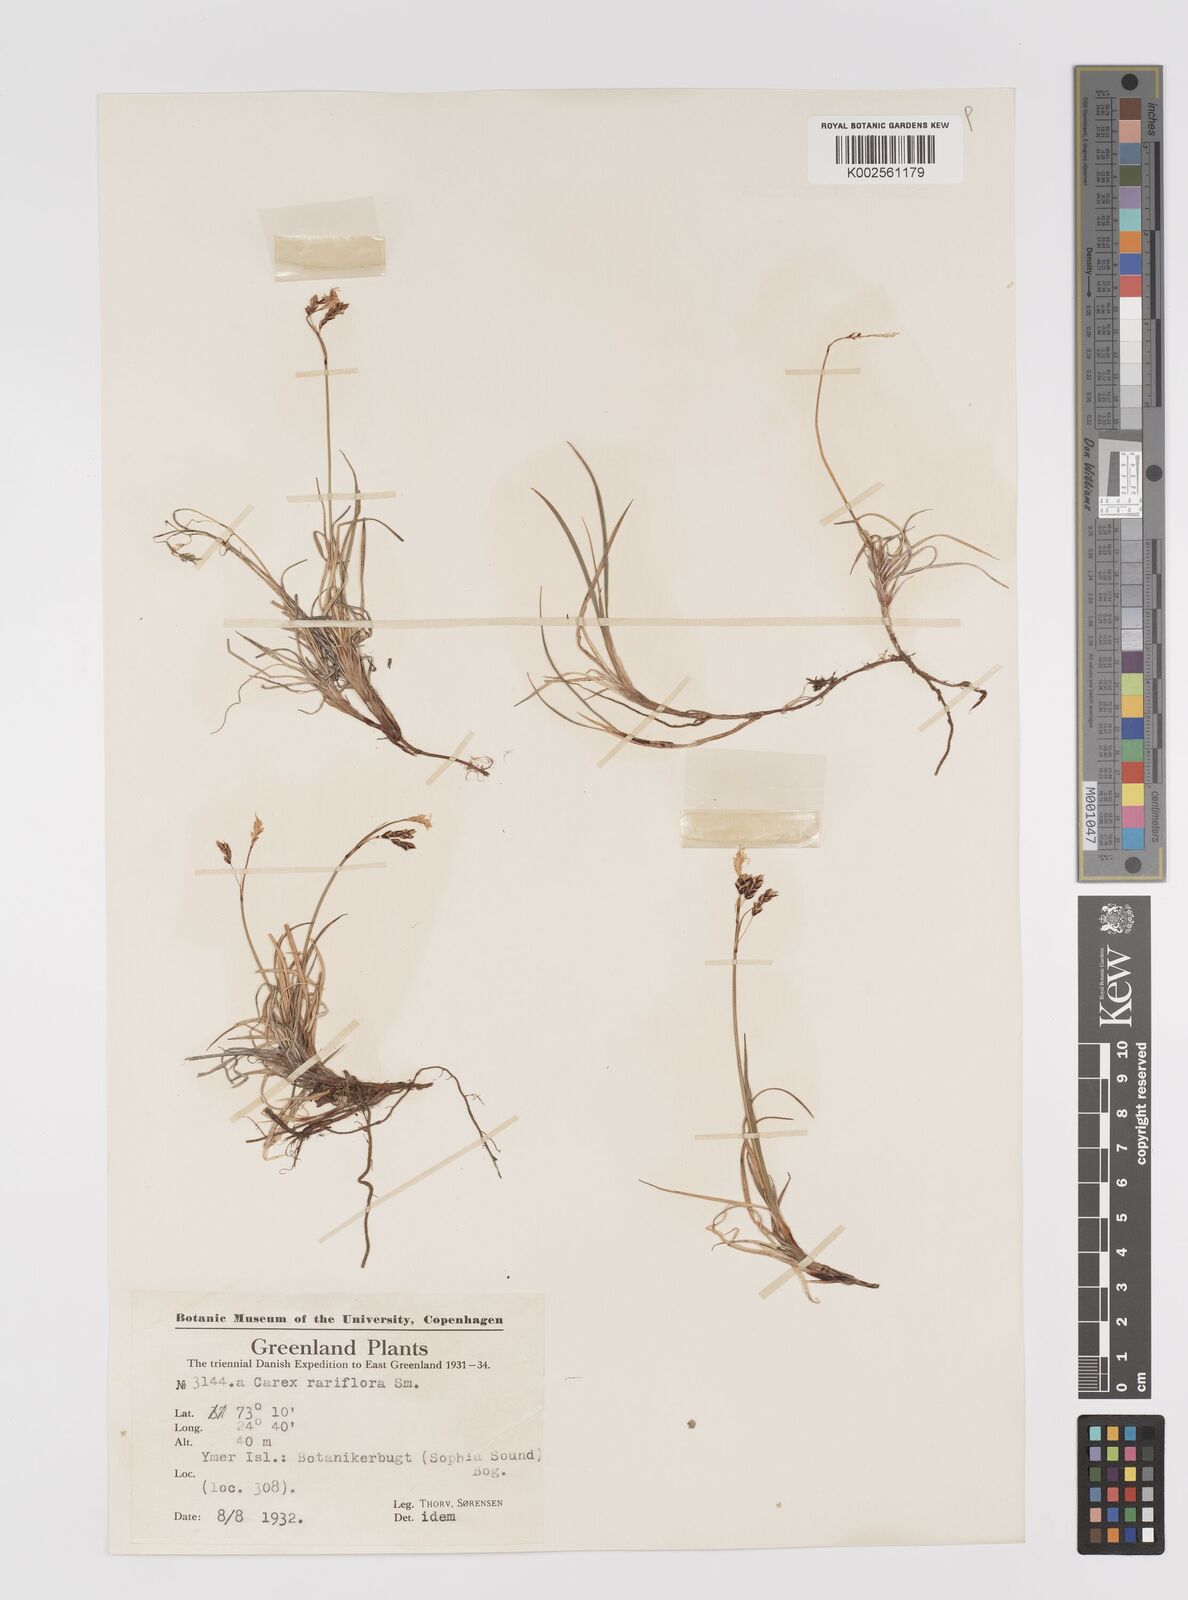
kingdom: Plantae
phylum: Tracheophyta
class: Liliopsida
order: Poales
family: Cyperaceae
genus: Carex
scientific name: Carex rariflora
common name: Loose-flowered alpine sedge
